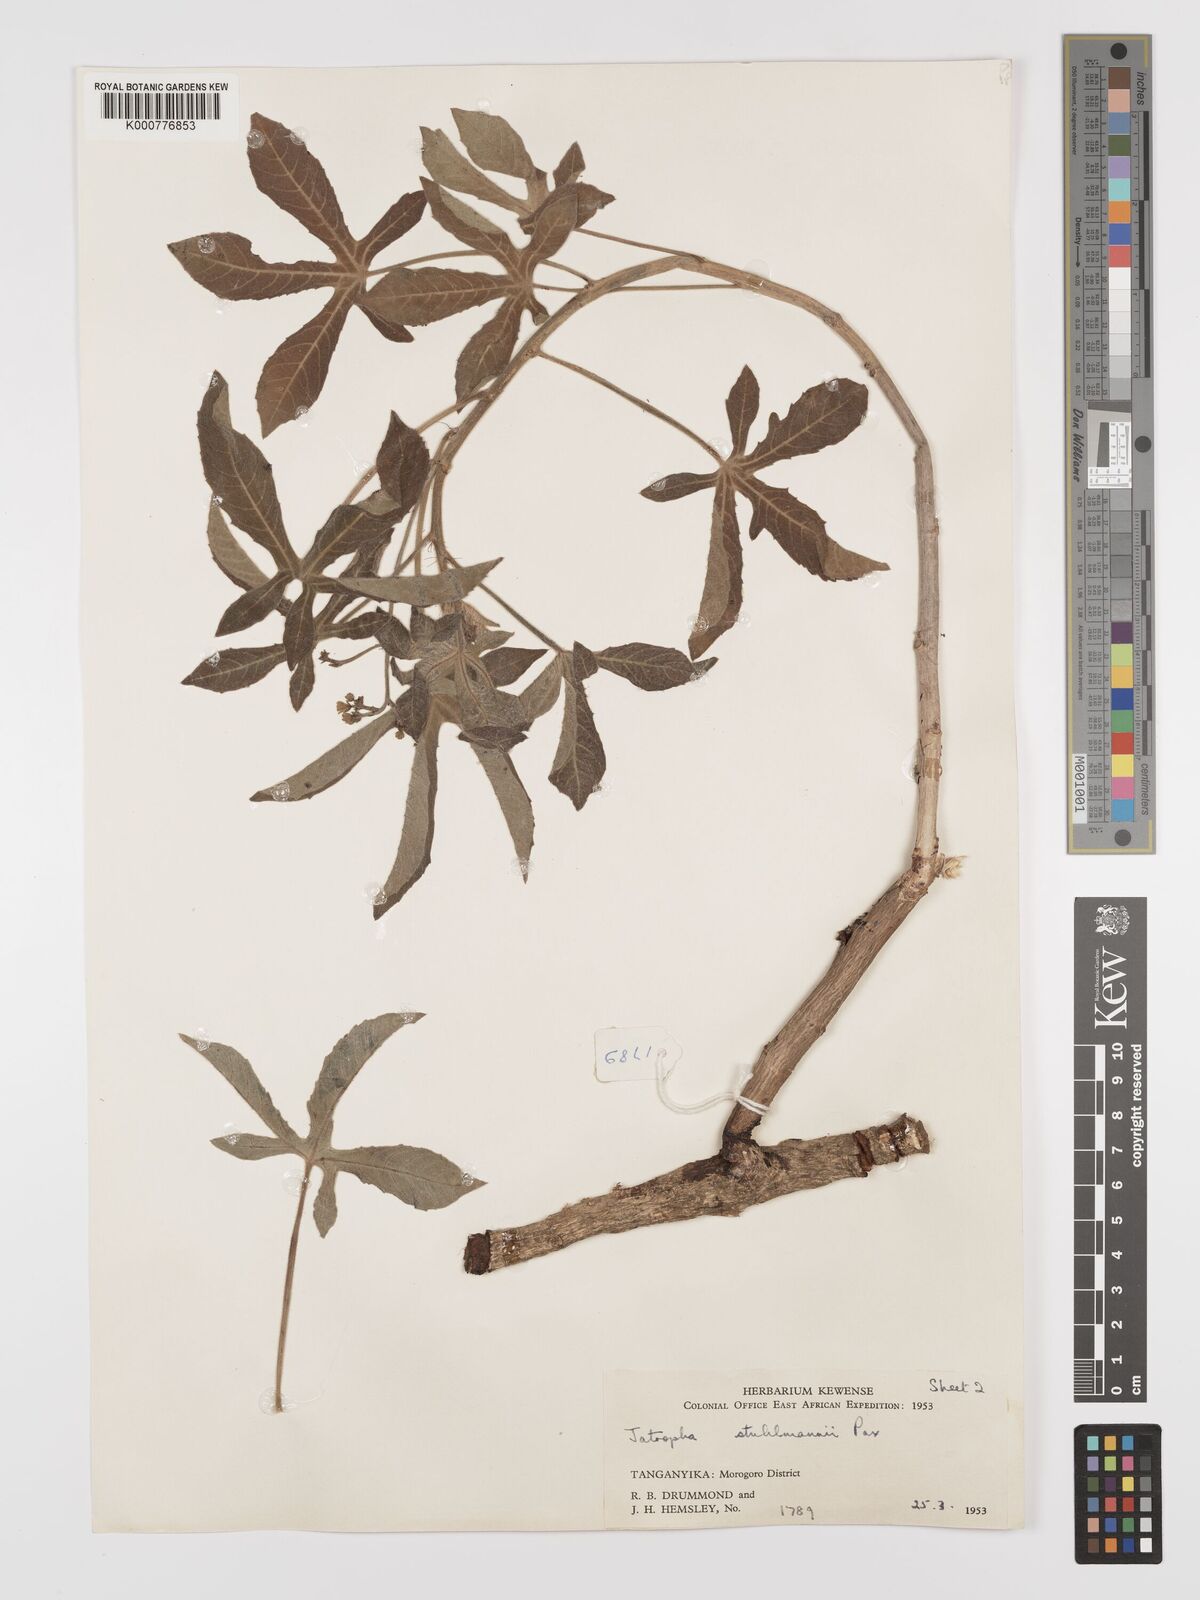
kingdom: Plantae
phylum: Tracheophyta
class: Magnoliopsida
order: Malpighiales
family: Euphorbiaceae
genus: Jatropha
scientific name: Jatropha stuhlmannii
